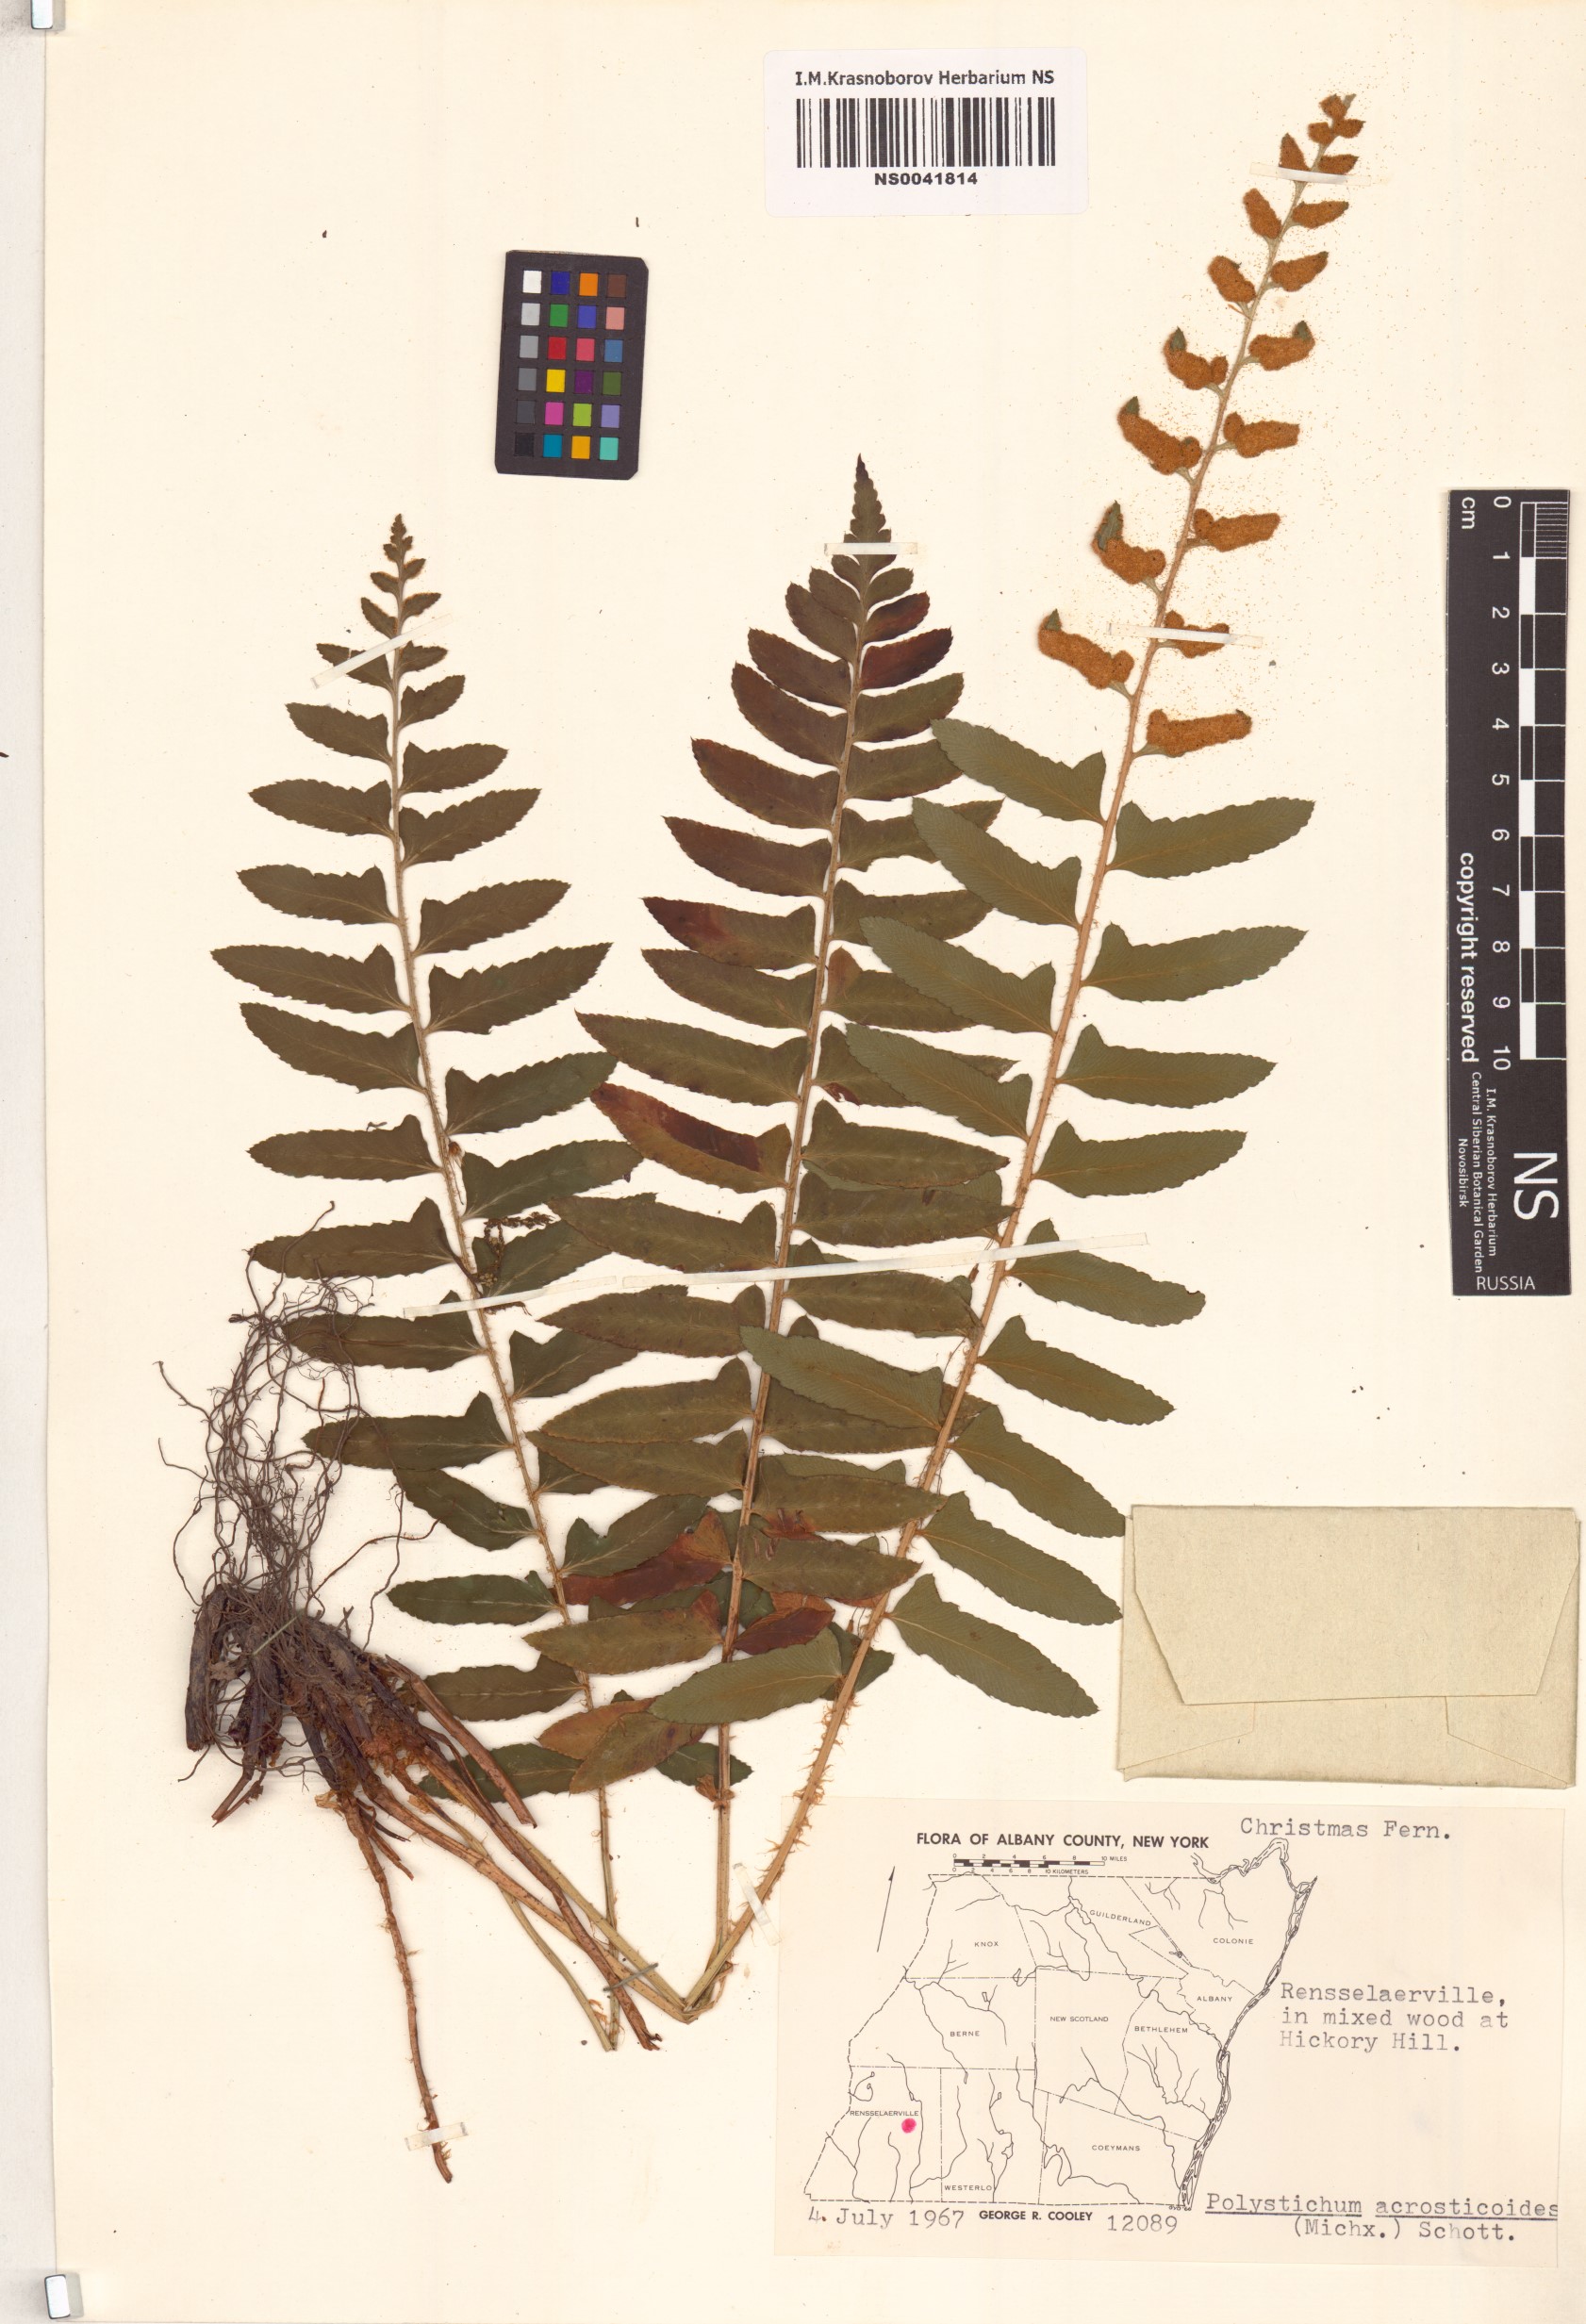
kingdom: Plantae
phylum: Tracheophyta
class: Polypodiopsida
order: Polypodiales
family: Dryopteridaceae
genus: Polystichum
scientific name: Polystichum acrostichoides
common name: Christmas fern
